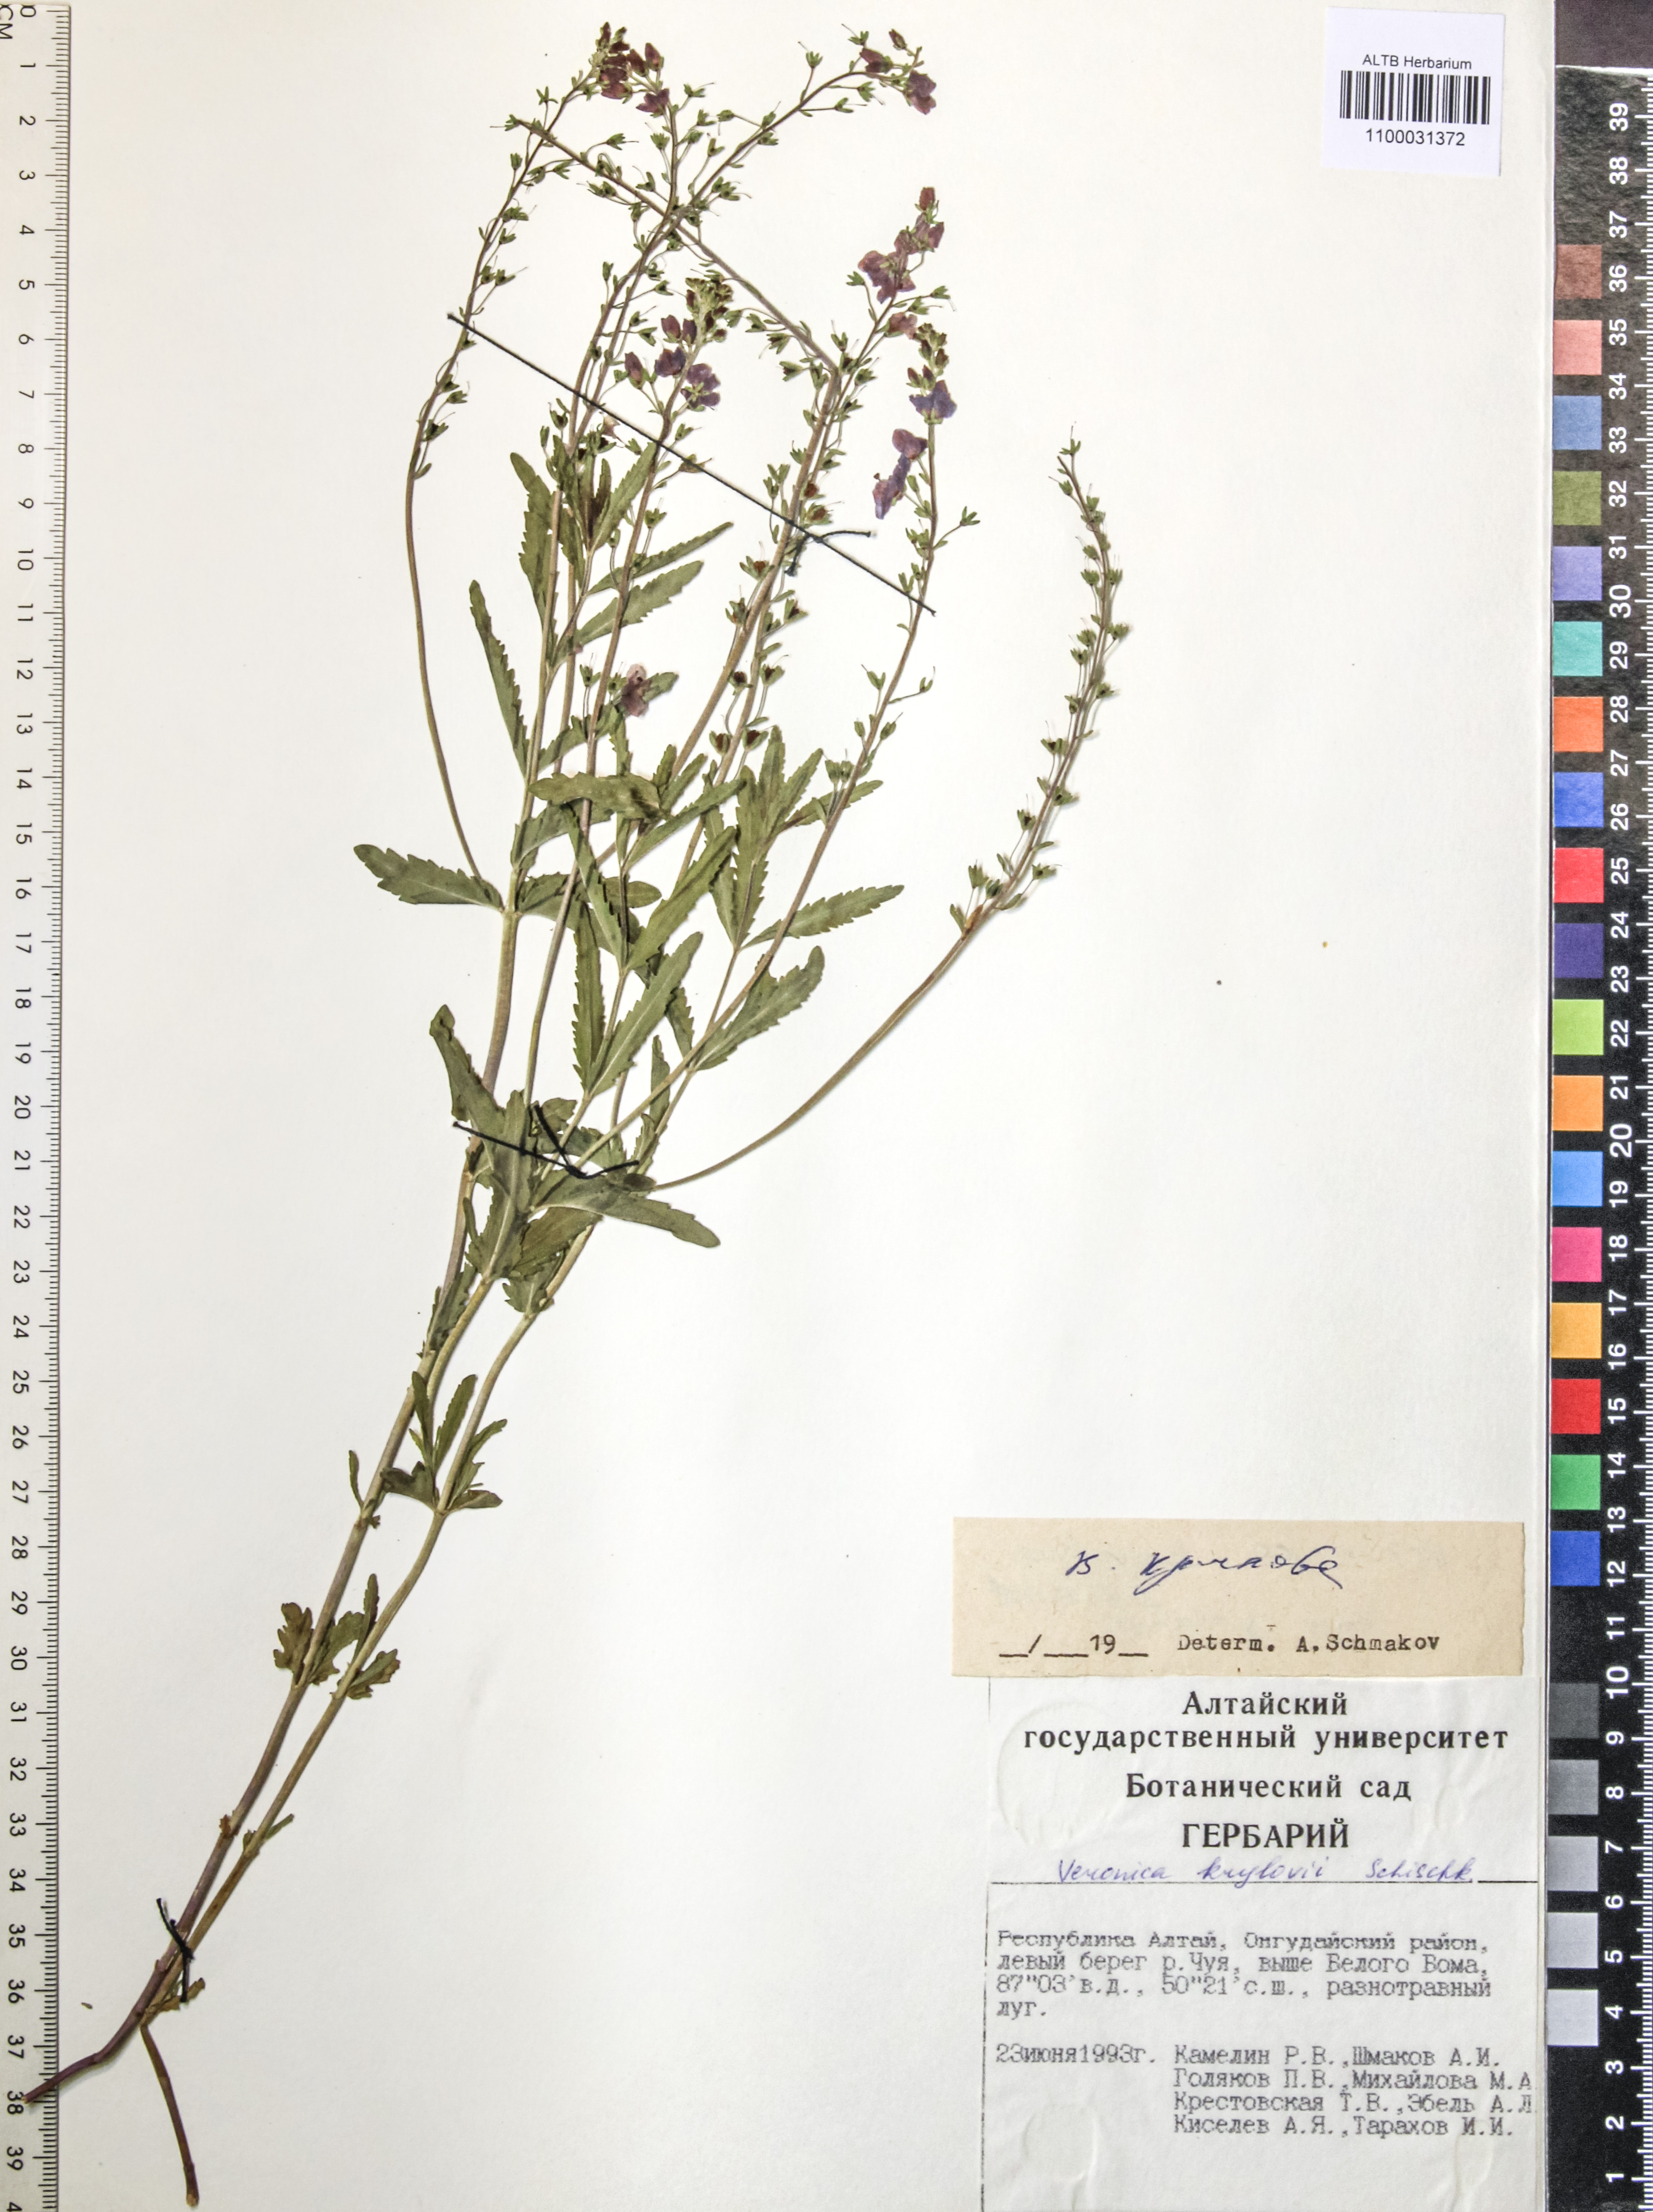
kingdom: Plantae
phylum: Tracheophyta
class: Magnoliopsida
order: Lamiales
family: Plantaginaceae
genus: Veronica
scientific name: Veronica krylovii
